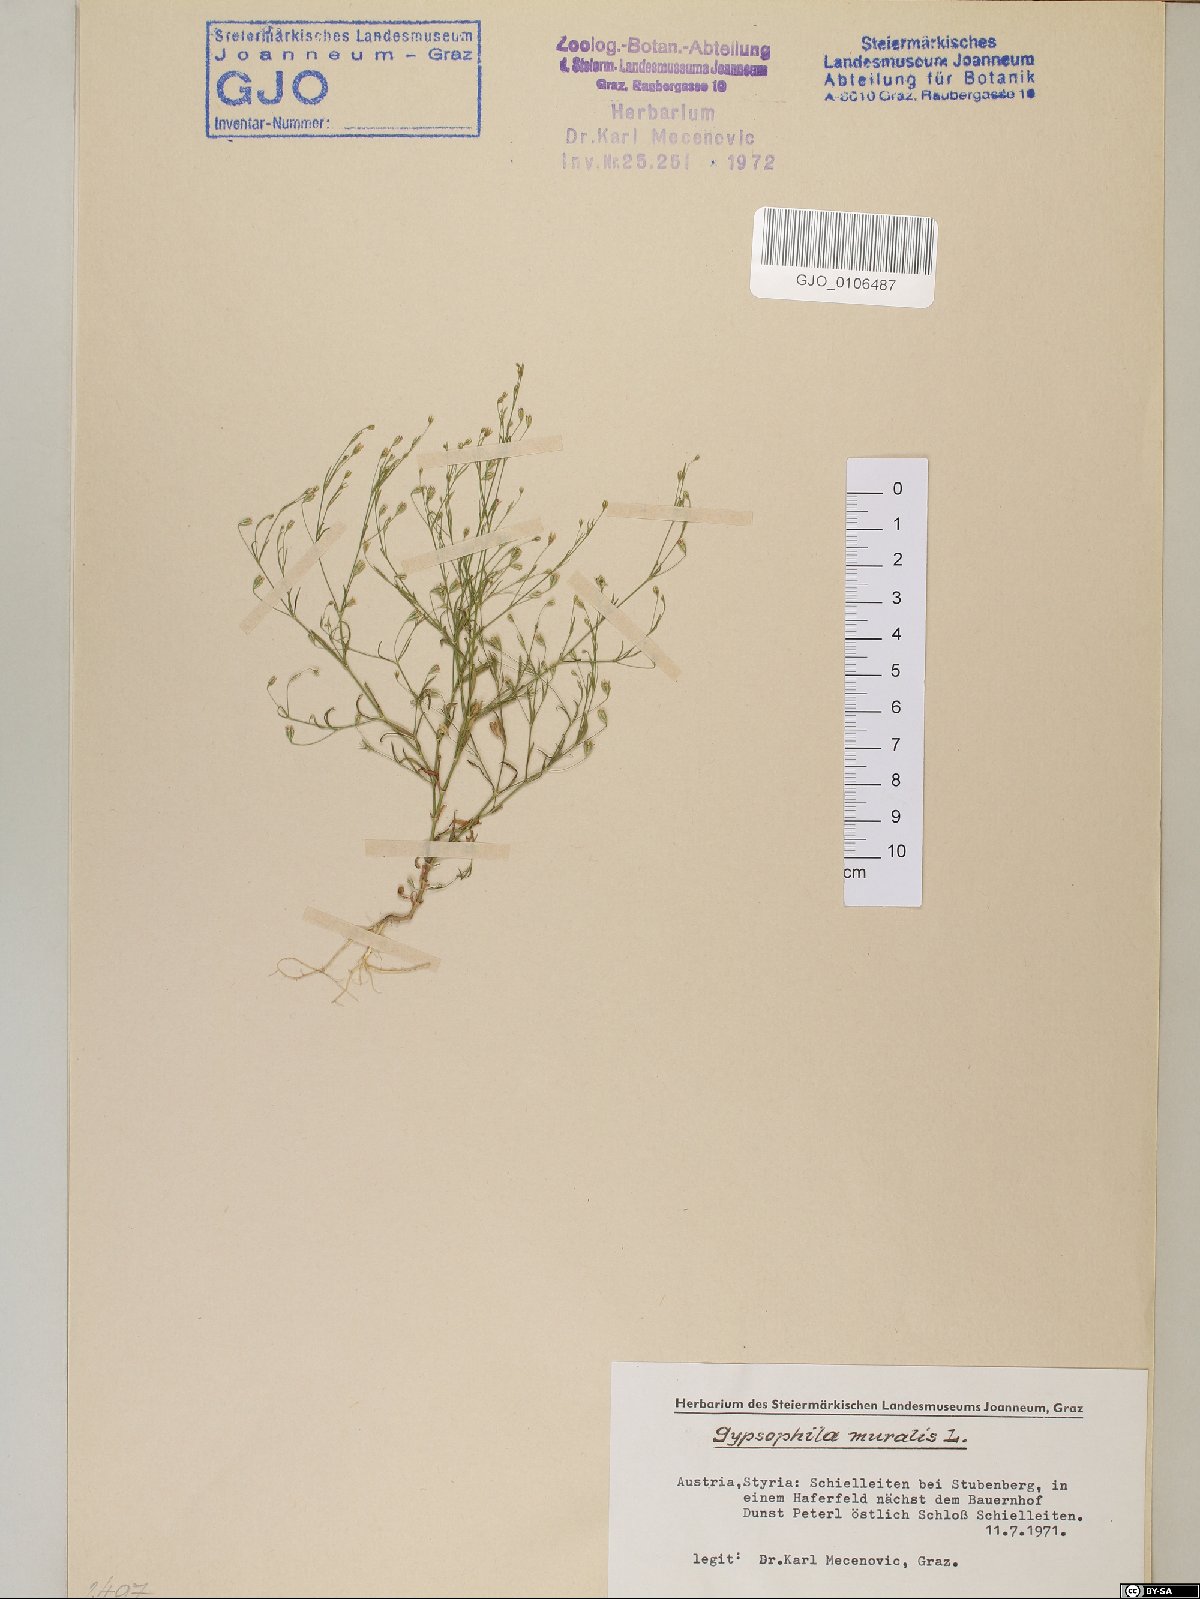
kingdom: Plantae
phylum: Tracheophyta
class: Magnoliopsida
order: Caryophyllales
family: Caryophyllaceae
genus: Psammophiliella
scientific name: Psammophiliella muralis
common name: Cushion baby's-breath
